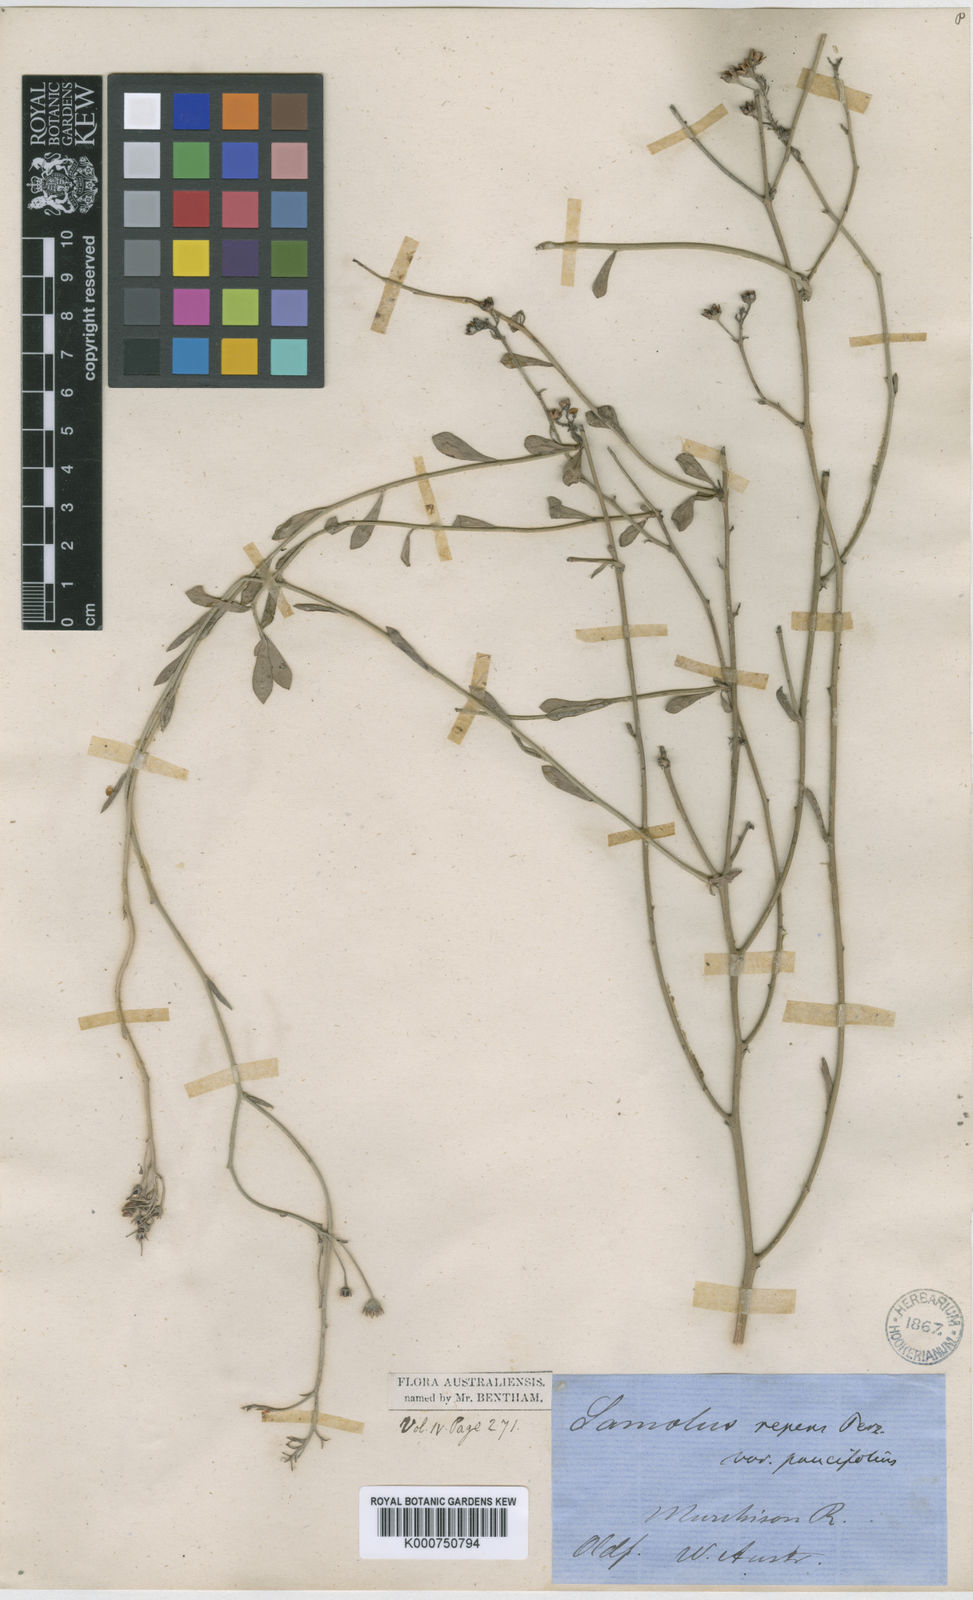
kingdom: Plantae
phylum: Tracheophyta
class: Magnoliopsida
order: Ericales
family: Primulaceae
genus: Samolus
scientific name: Samolus repens
